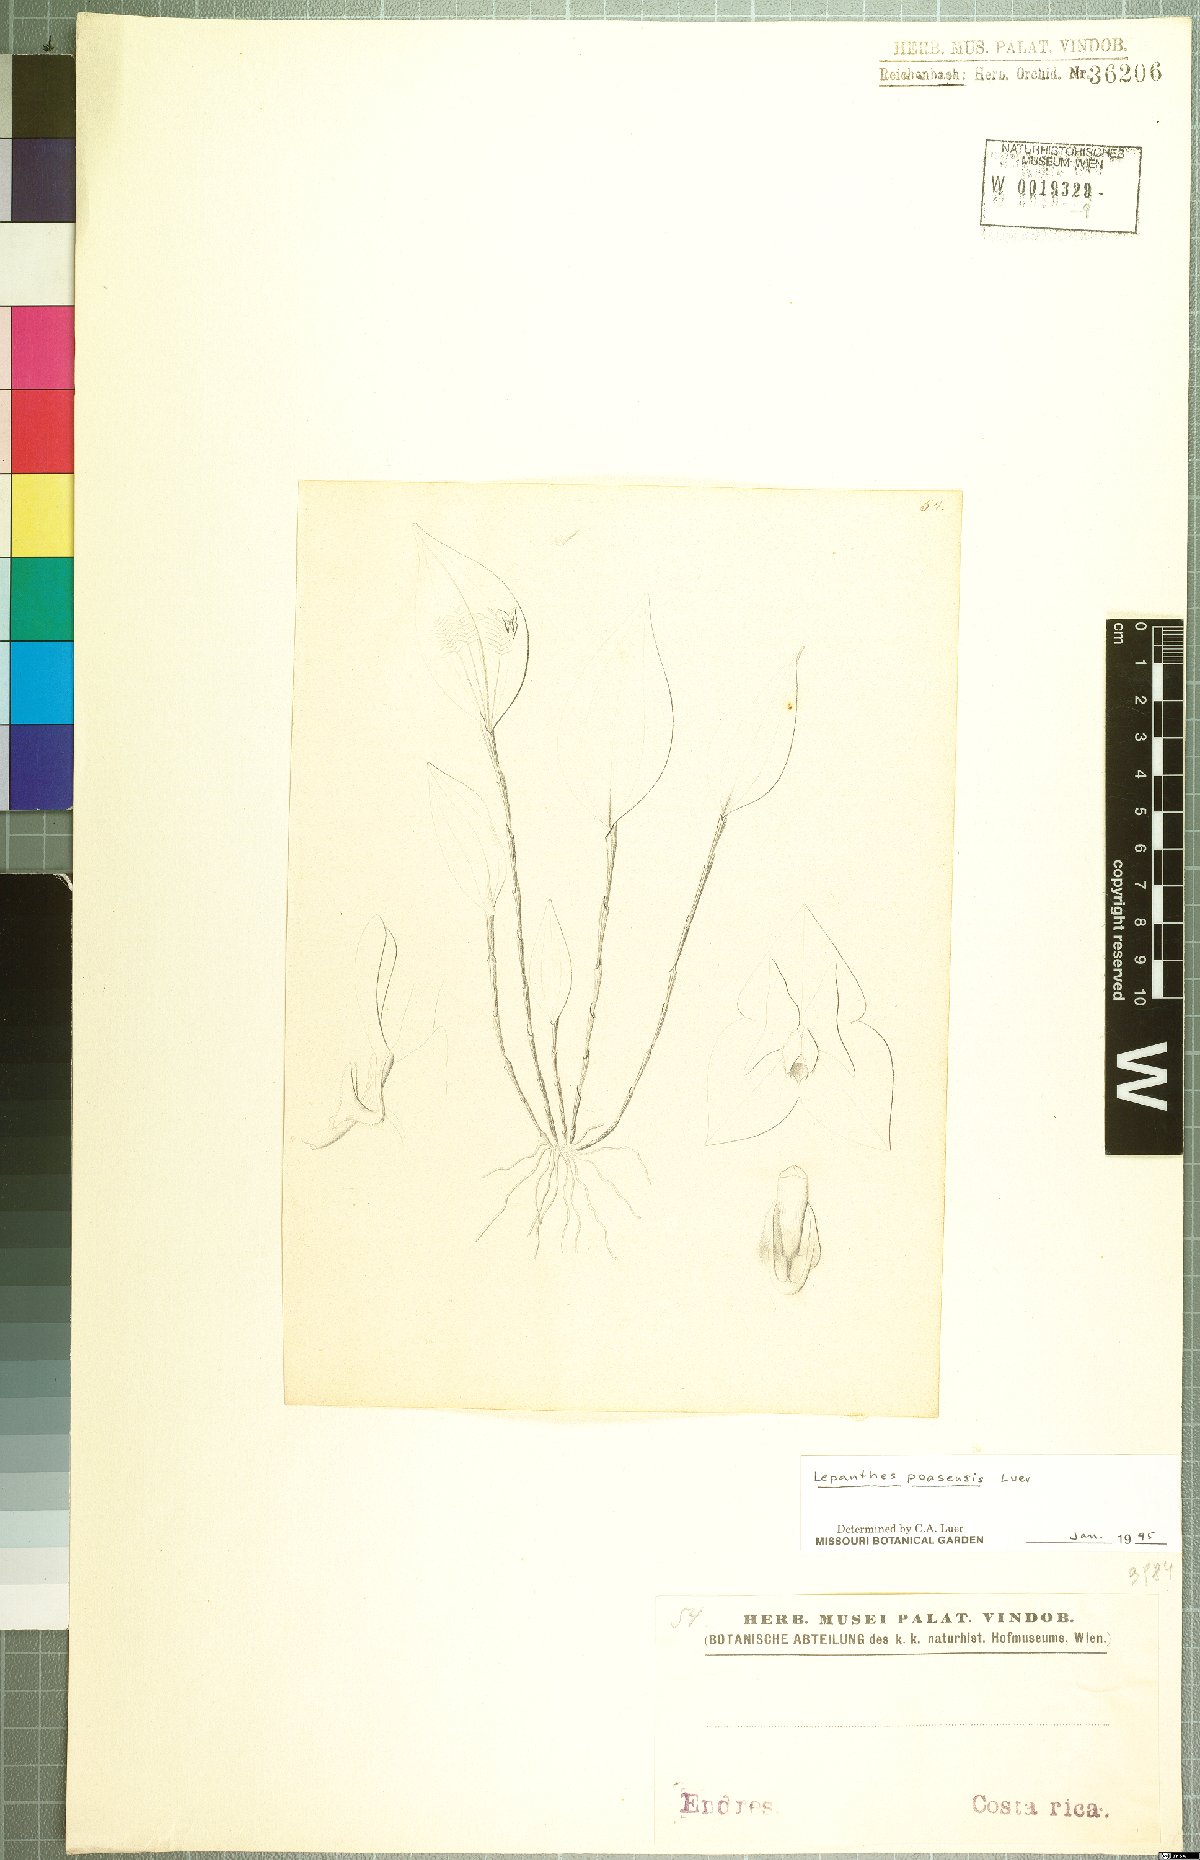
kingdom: Plantae
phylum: Tracheophyta
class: Liliopsida
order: Asparagales
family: Orchidaceae
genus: Lepanthes
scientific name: Lepanthes poasensis
